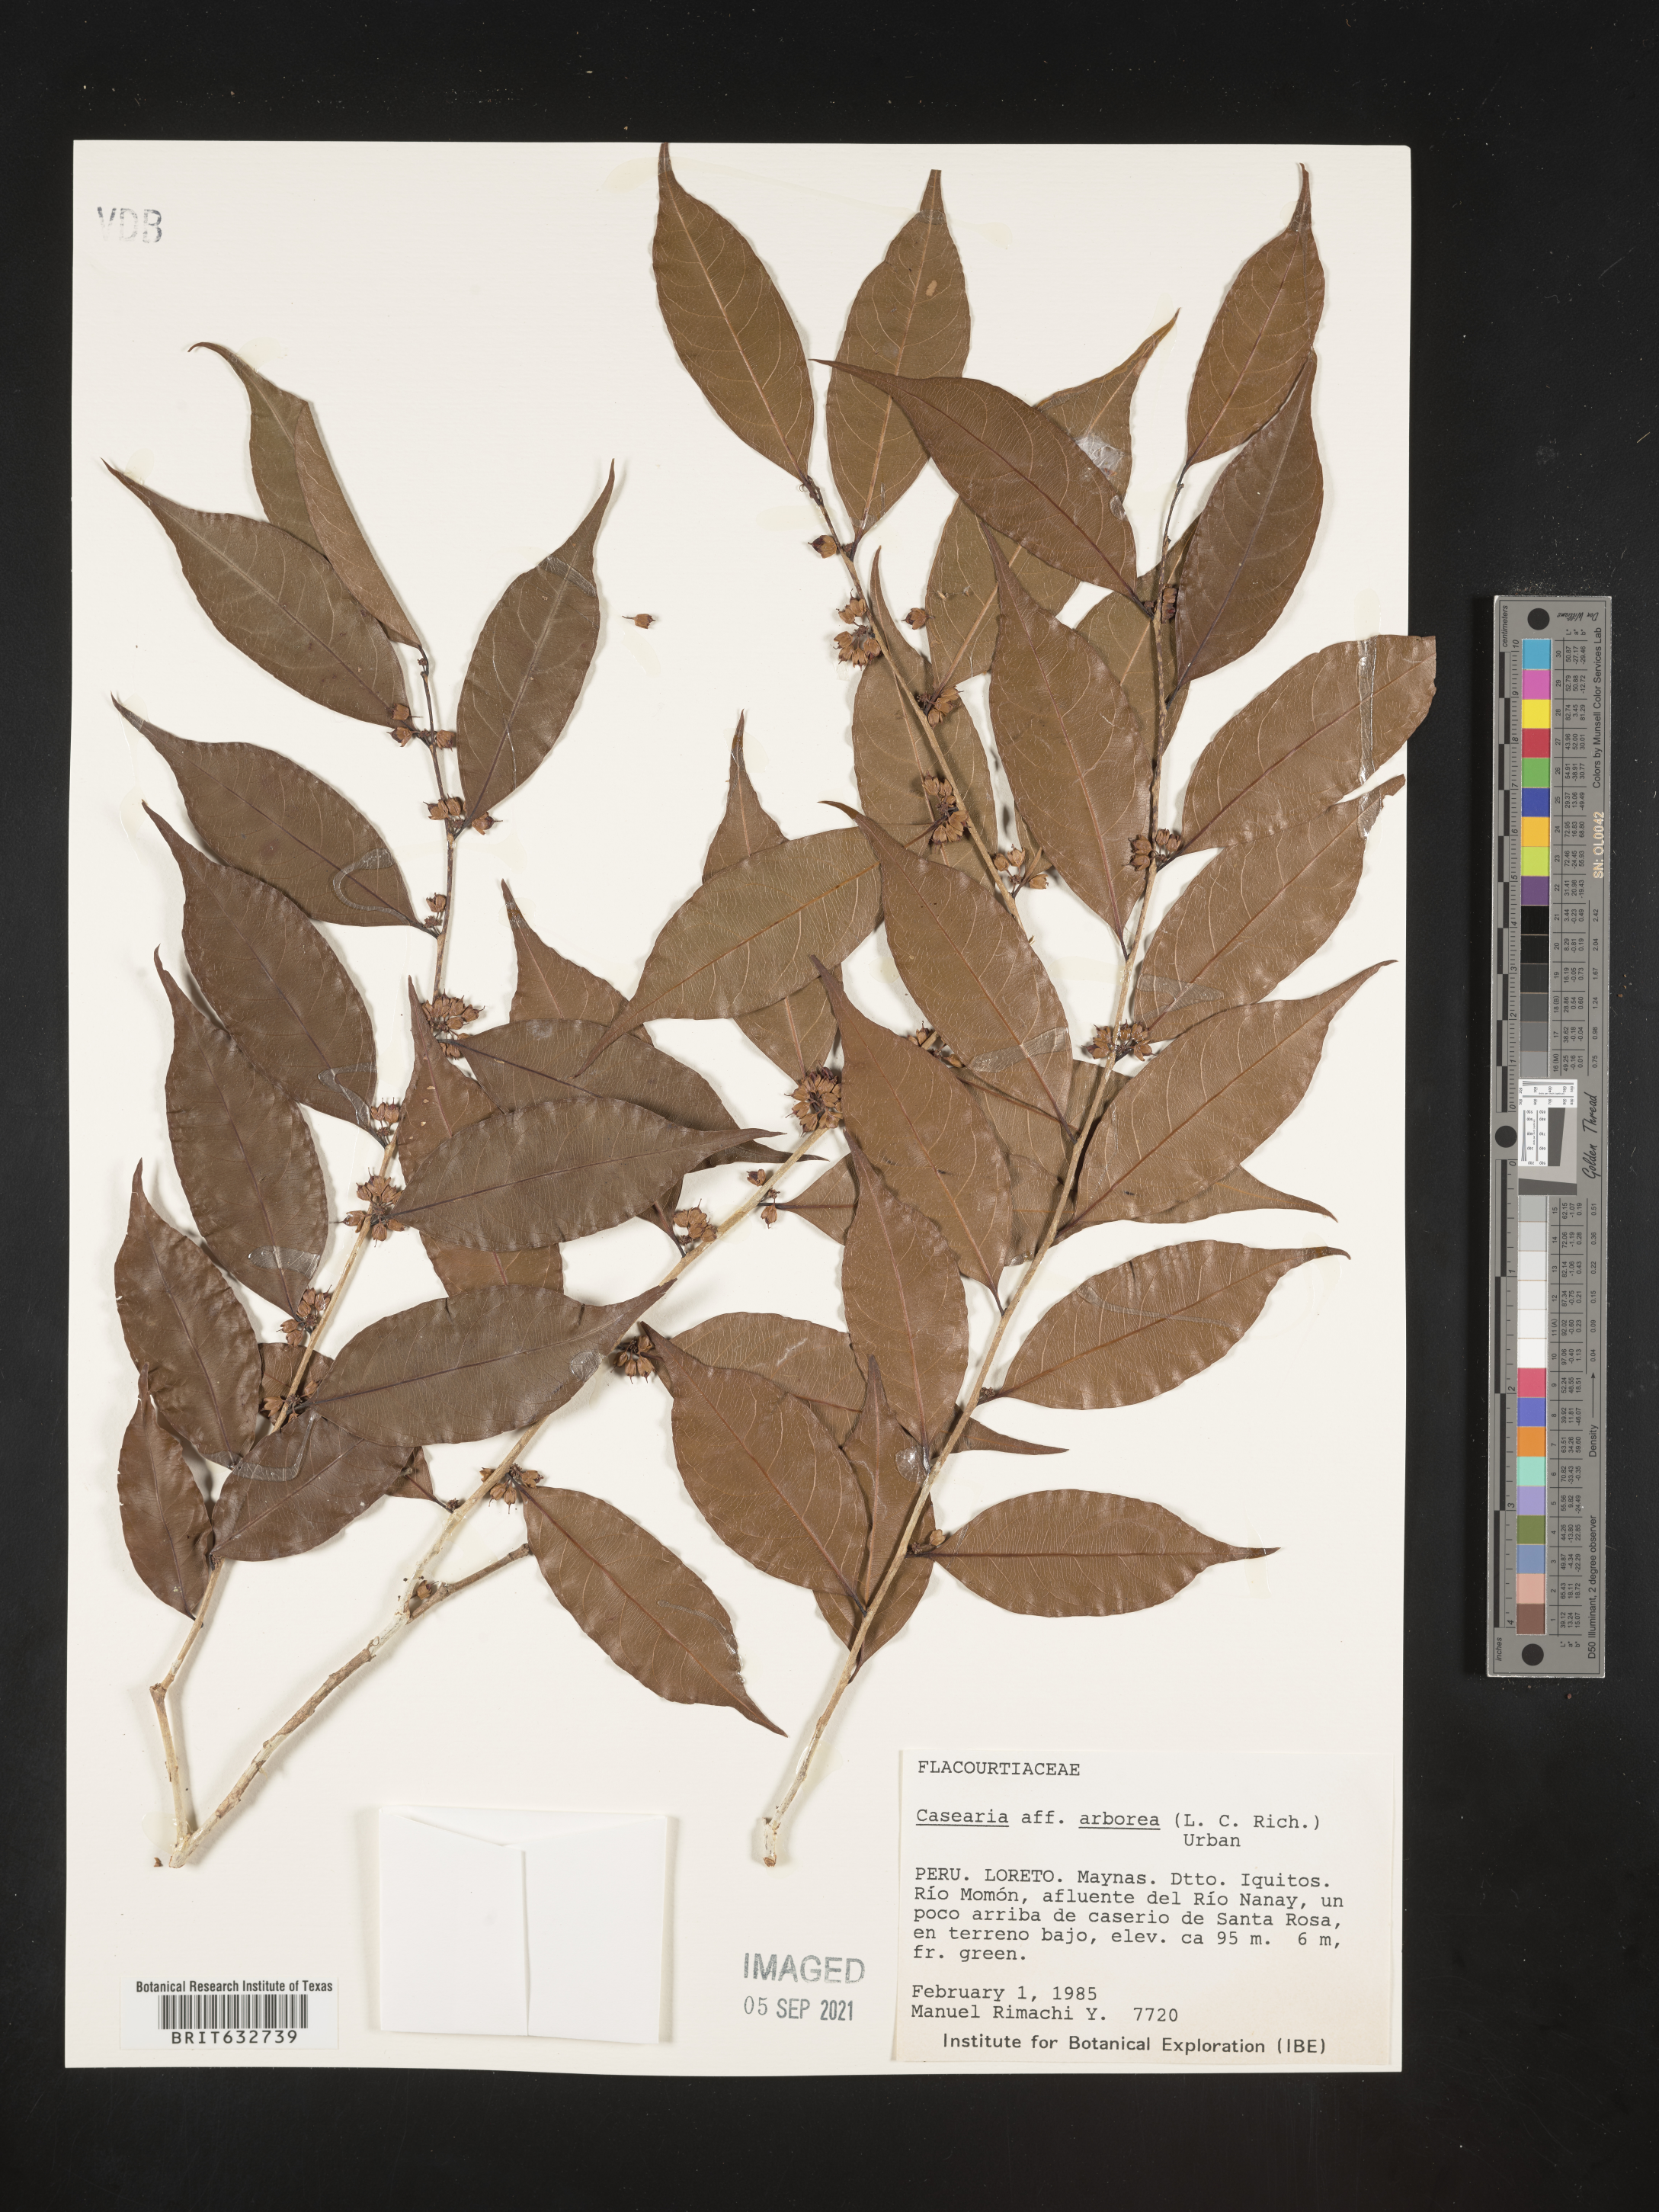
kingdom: Plantae
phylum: Tracheophyta
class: Magnoliopsida
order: Malpighiales
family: Salicaceae
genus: Casearia
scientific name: Casearia
